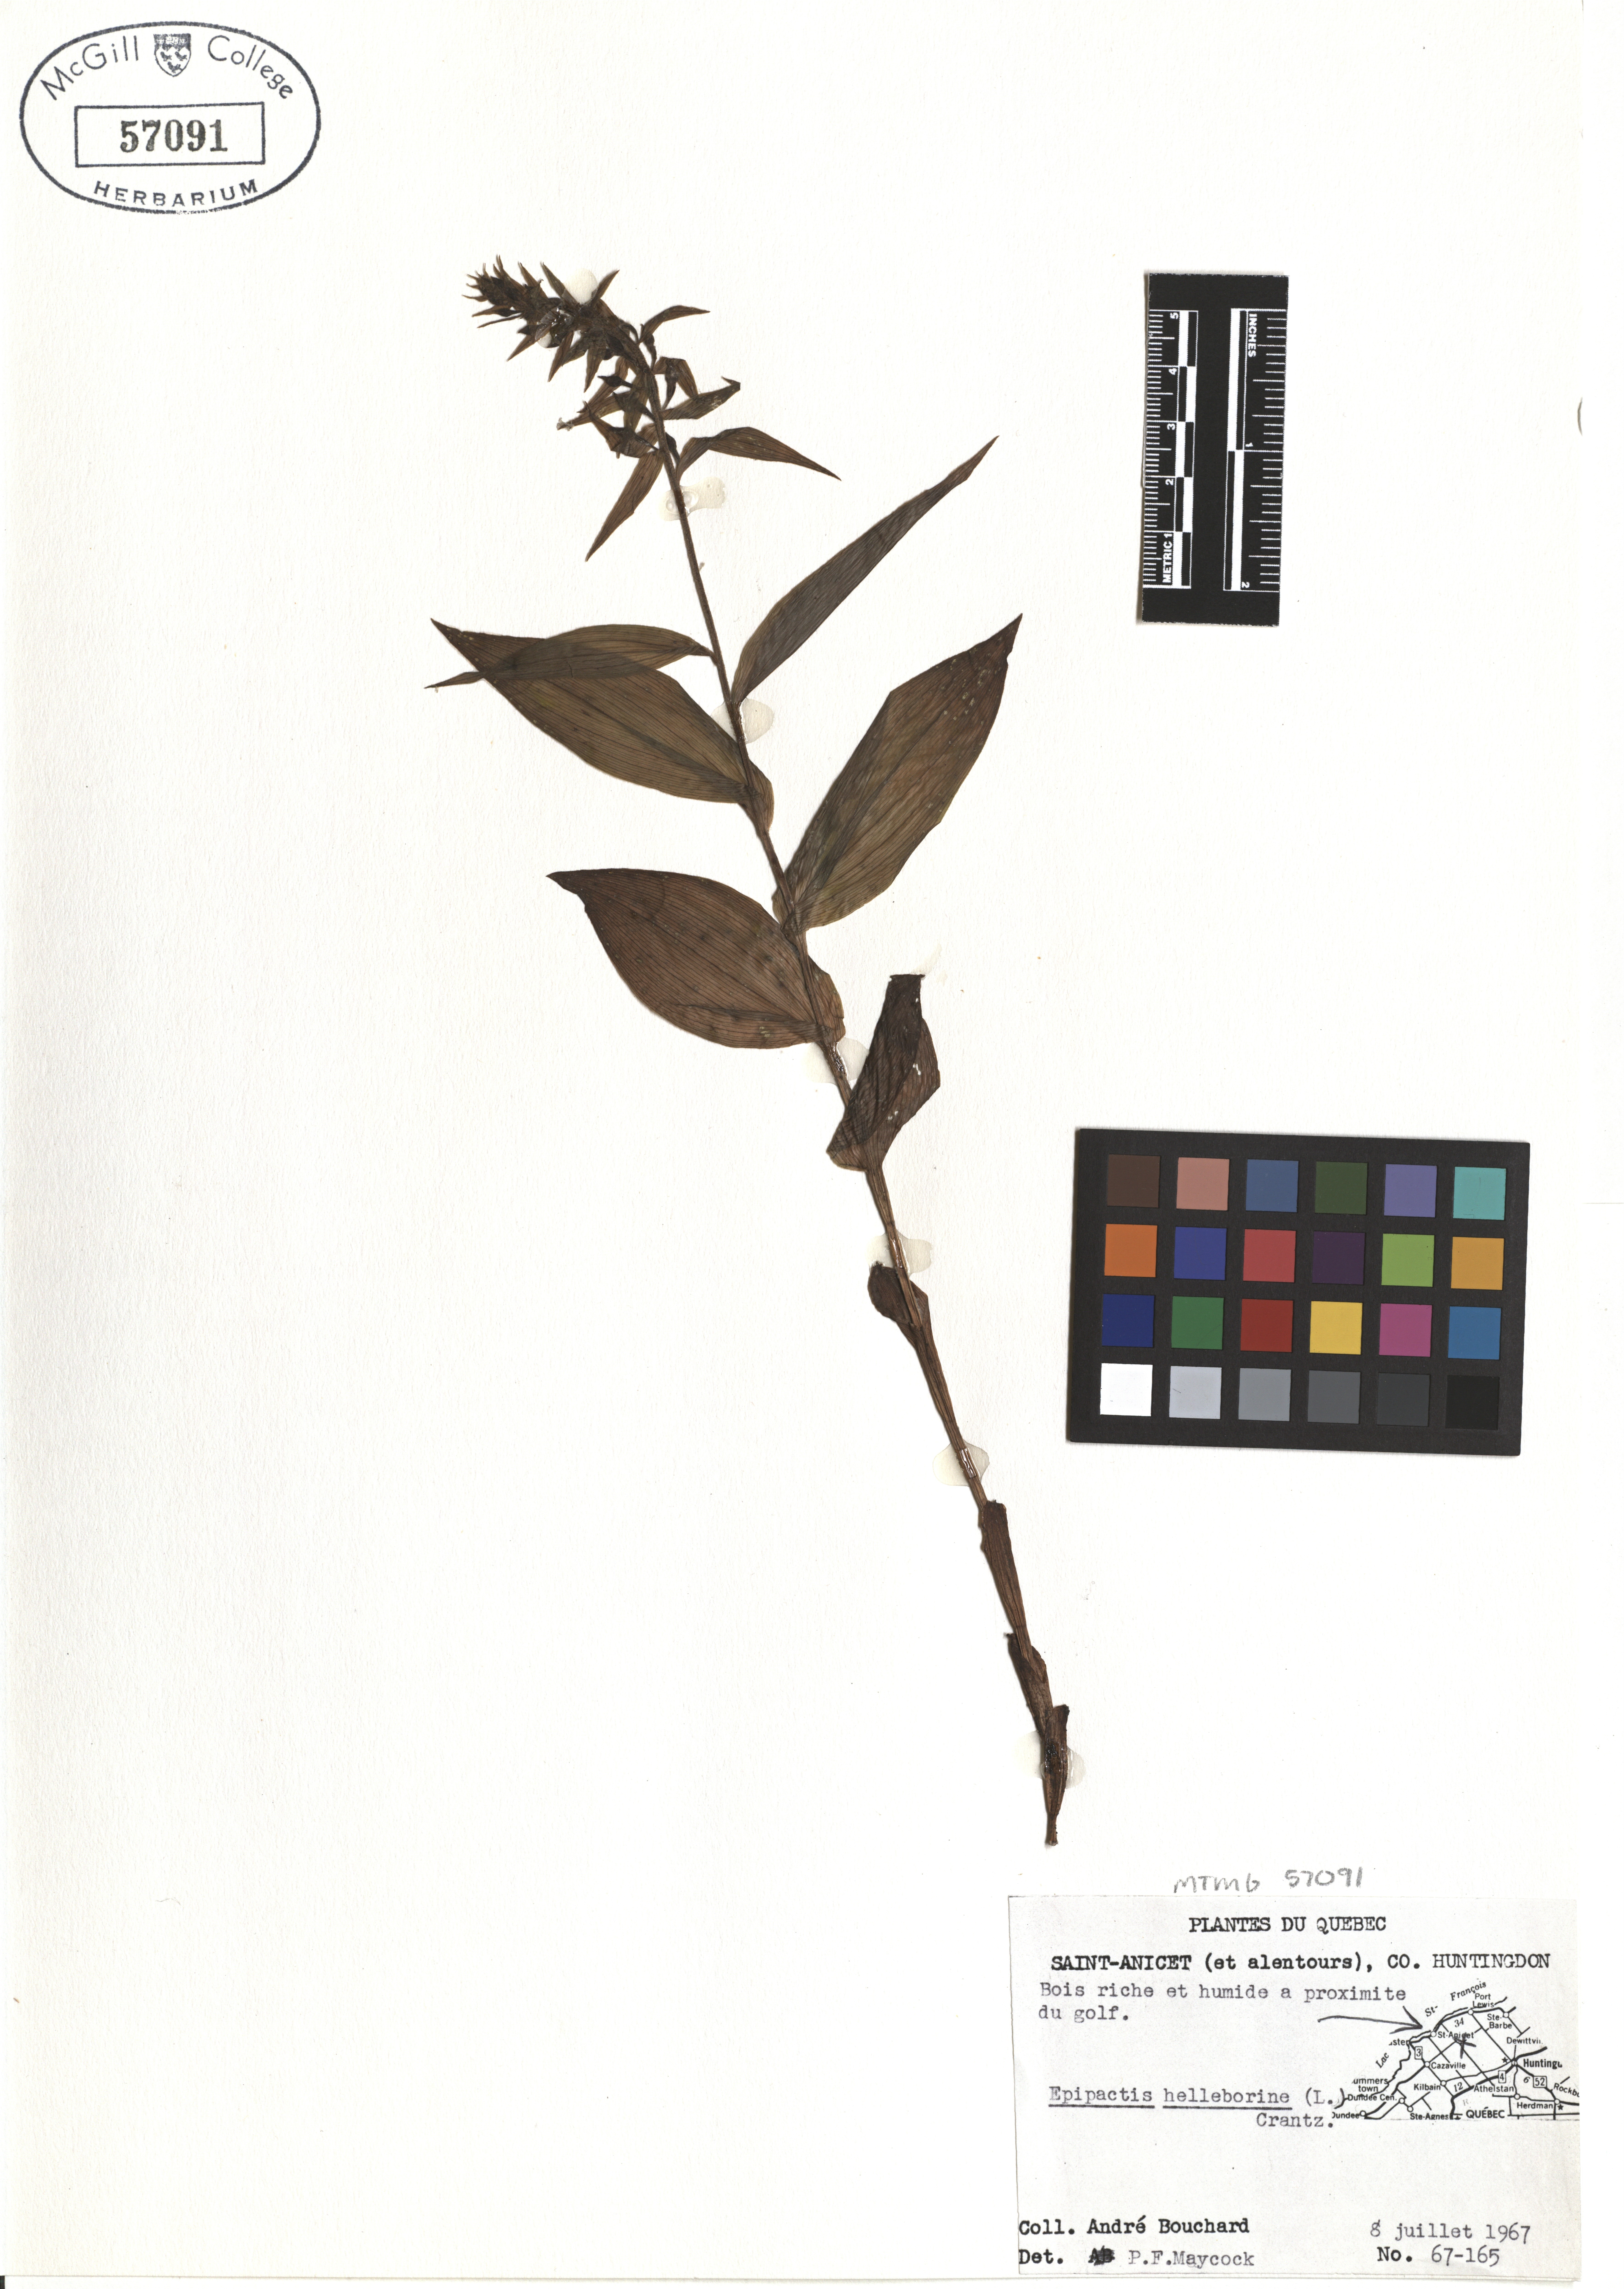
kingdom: Plantae
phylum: Tracheophyta
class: Liliopsida
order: Asparagales
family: Orchidaceae
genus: Epipactis
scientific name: Epipactis helleborine
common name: Broad-leaved helleborine
